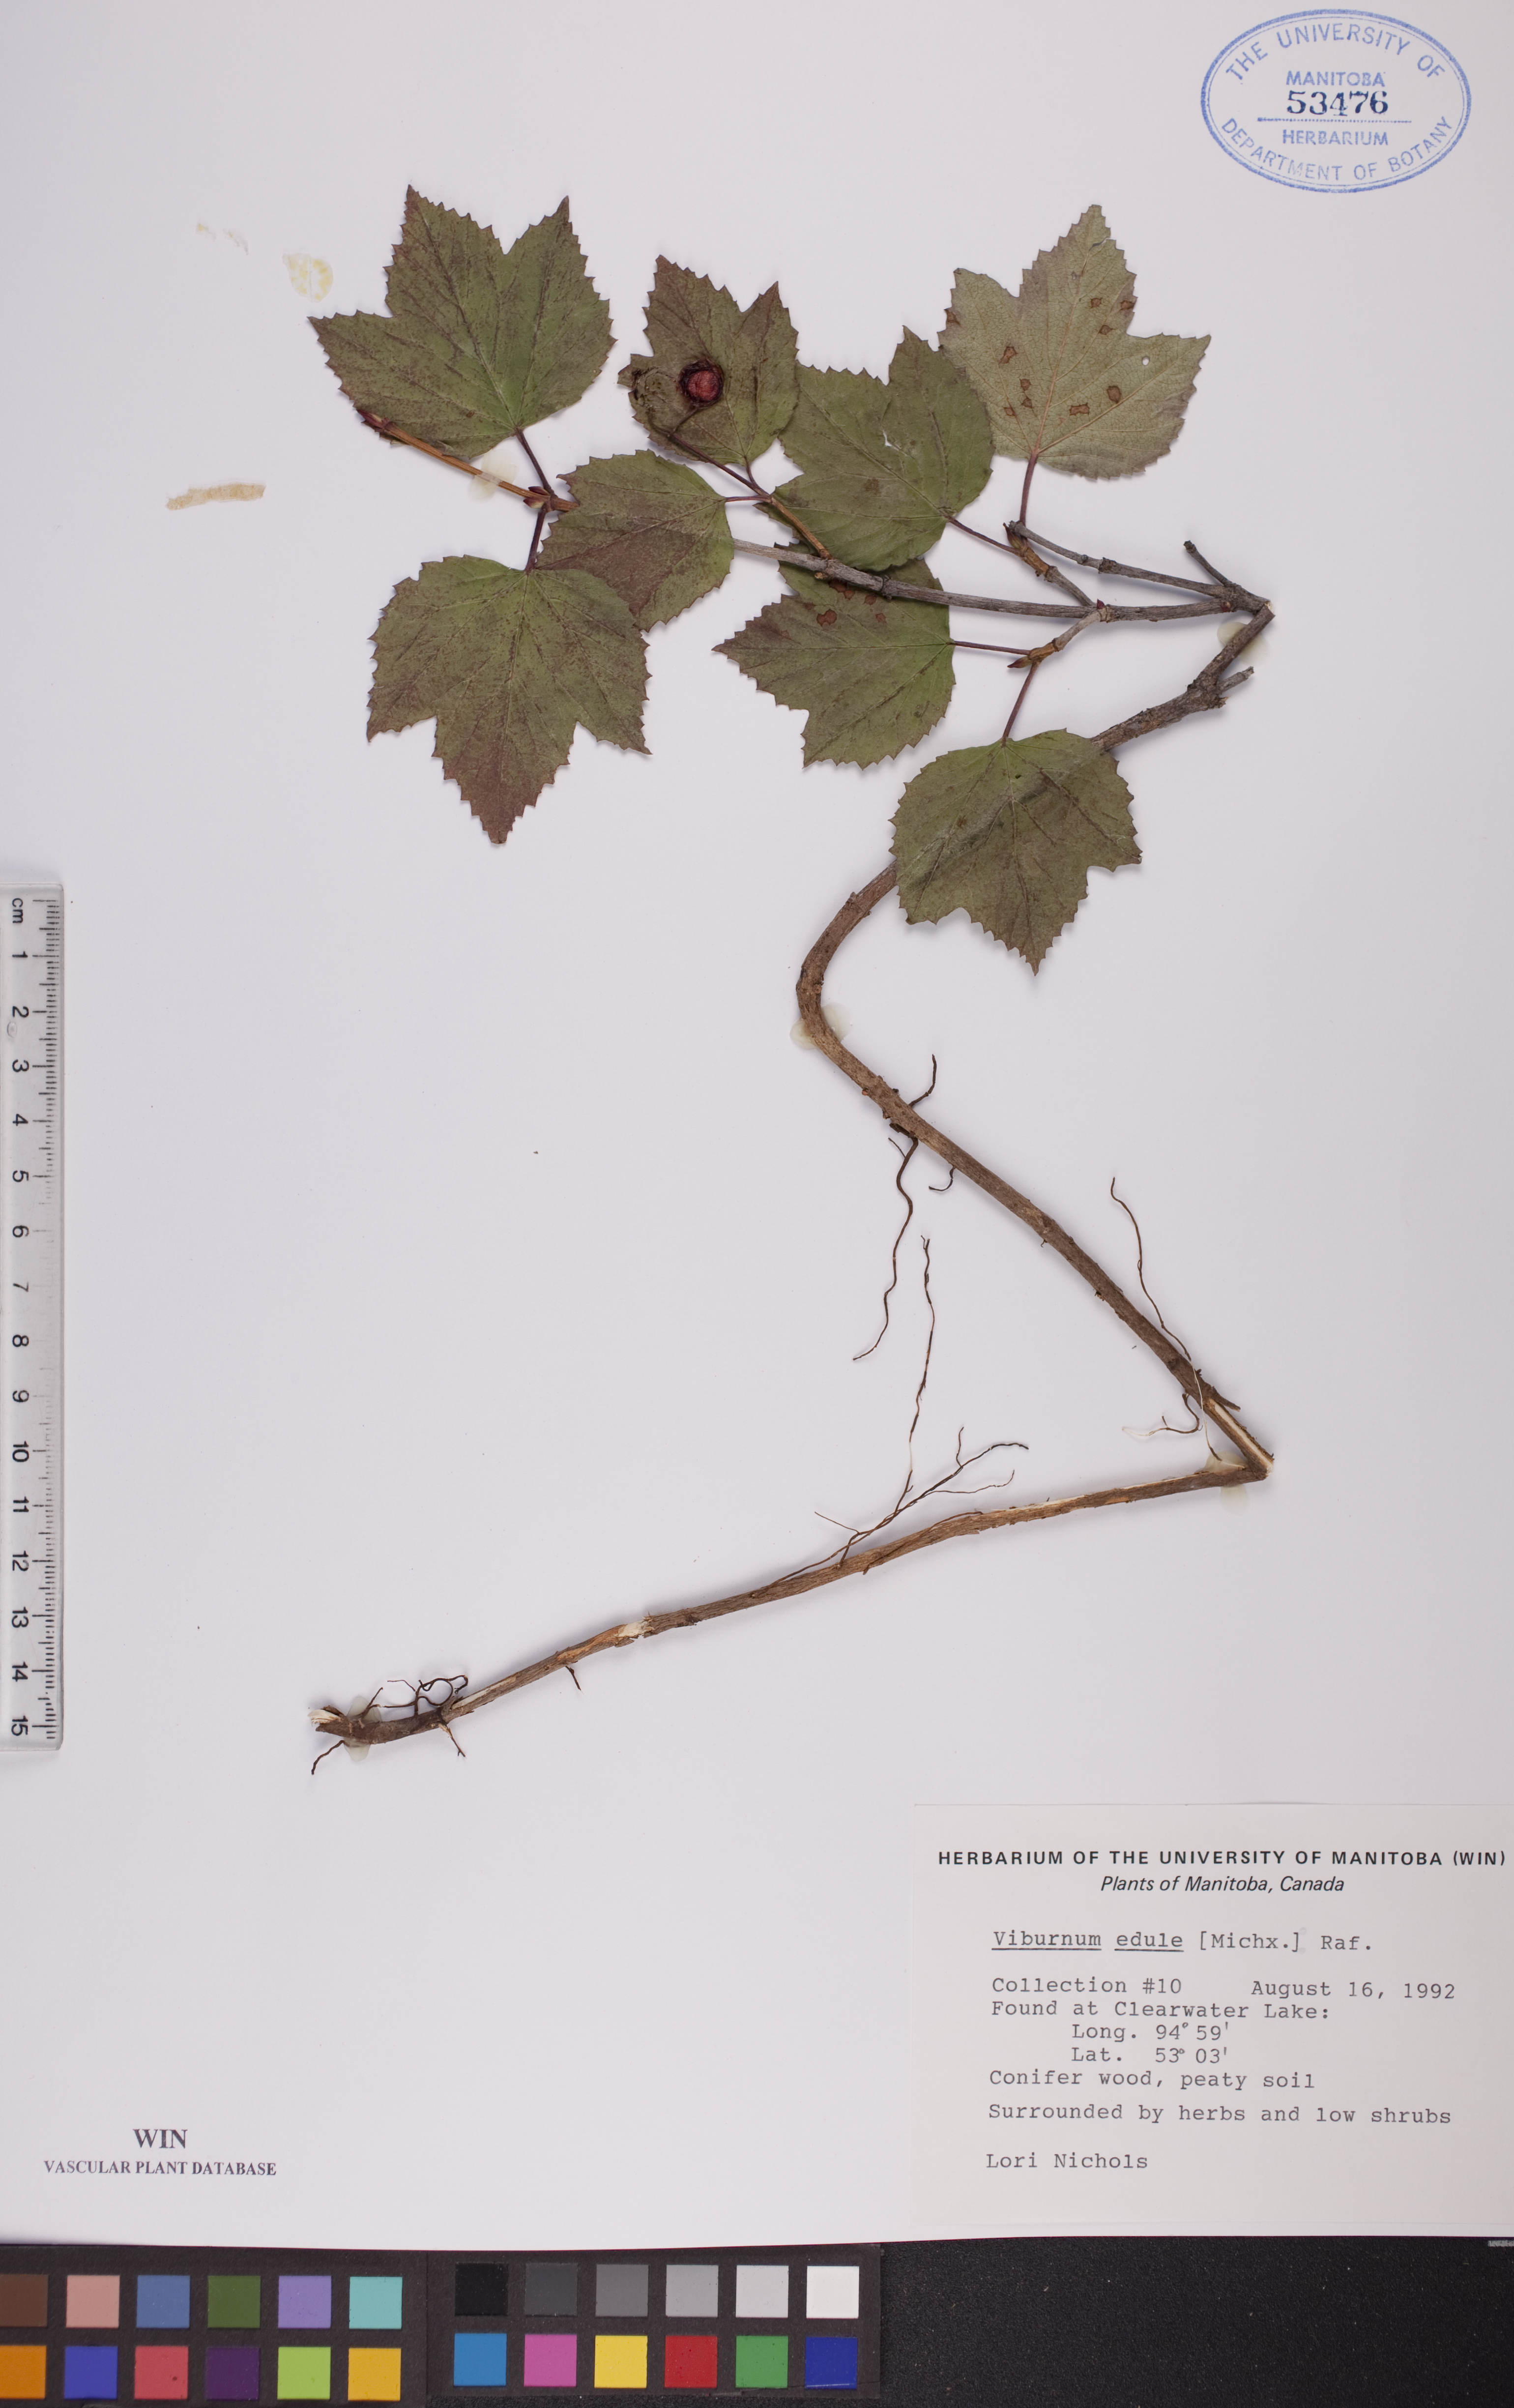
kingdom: Plantae
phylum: Tracheophyta
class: Magnoliopsida
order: Dipsacales
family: Viburnaceae
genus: Viburnum
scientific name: Viburnum edule
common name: Mooseberry
